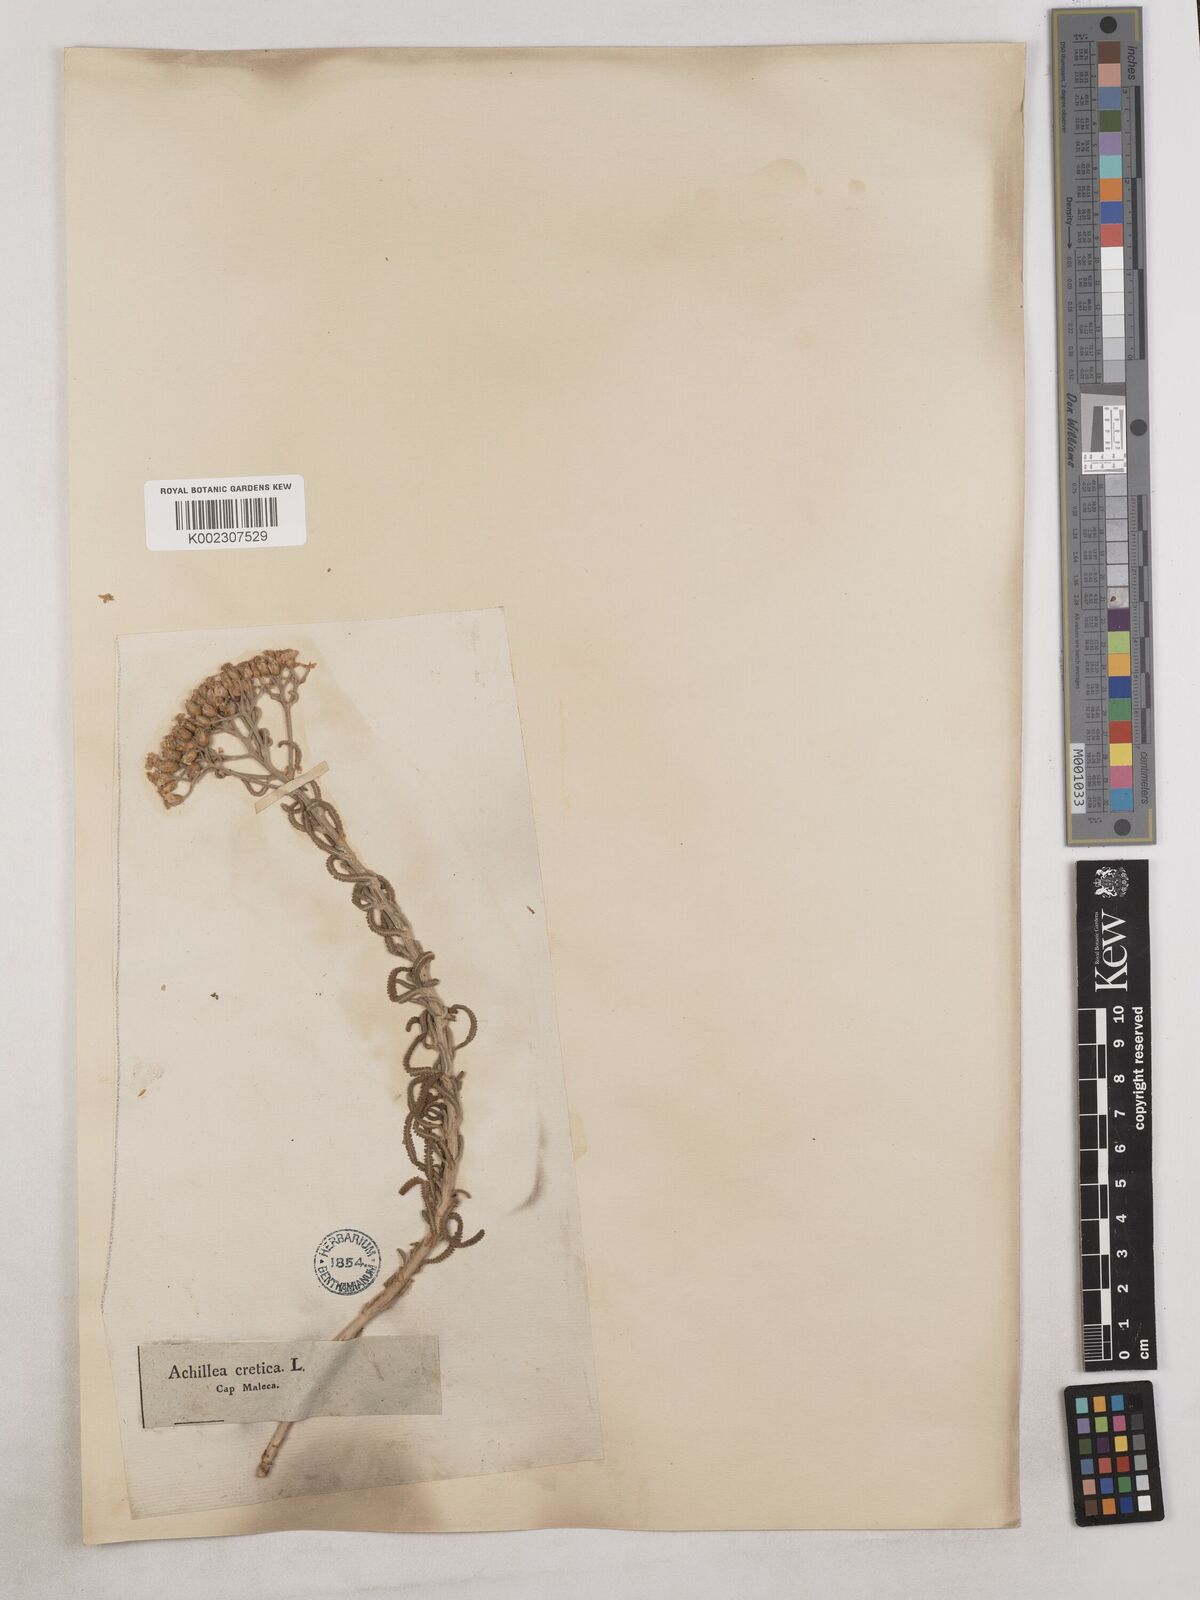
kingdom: Plantae
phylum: Tracheophyta
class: Magnoliopsida
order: Asterales
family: Asteraceae
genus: Achillea
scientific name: Achillea cretica
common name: Chamomile-leaved lavender-cotton
